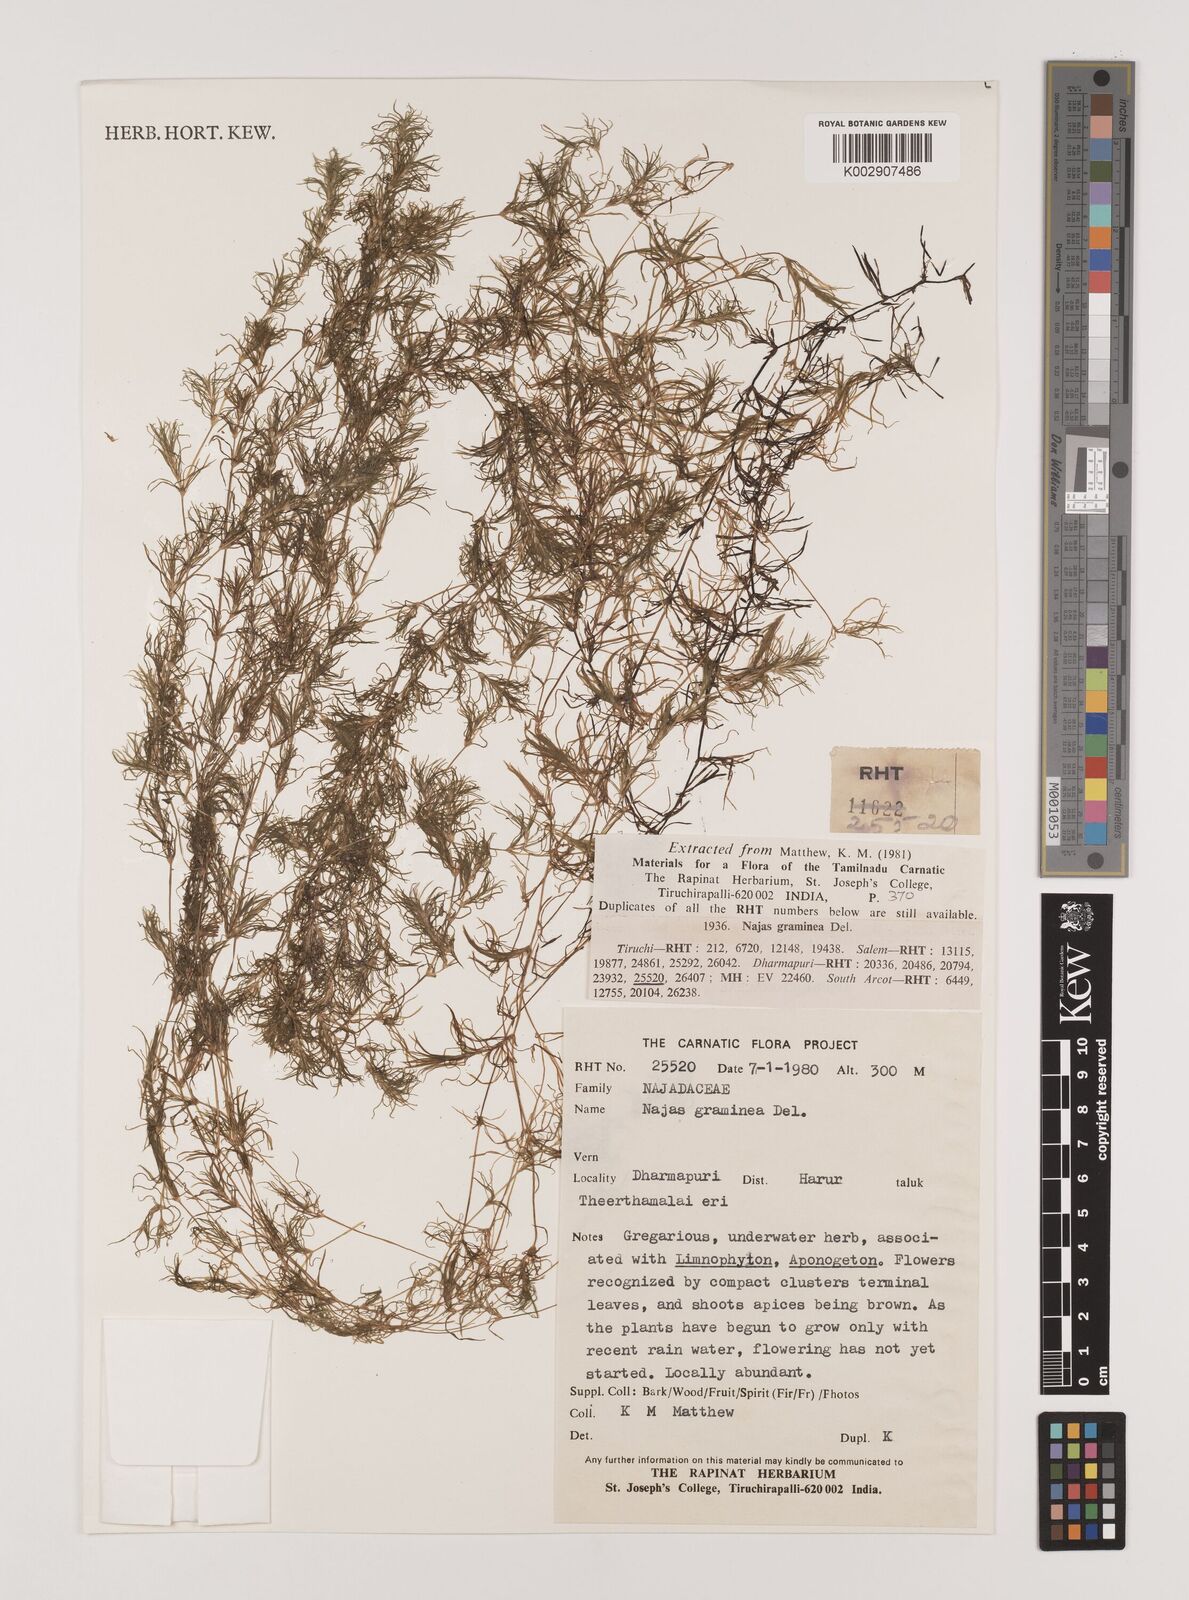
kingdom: Plantae
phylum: Tracheophyta
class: Liliopsida
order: Alismatales
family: Hydrocharitaceae
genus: Najas
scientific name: Najas graminea
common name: Ricefield waternymph
